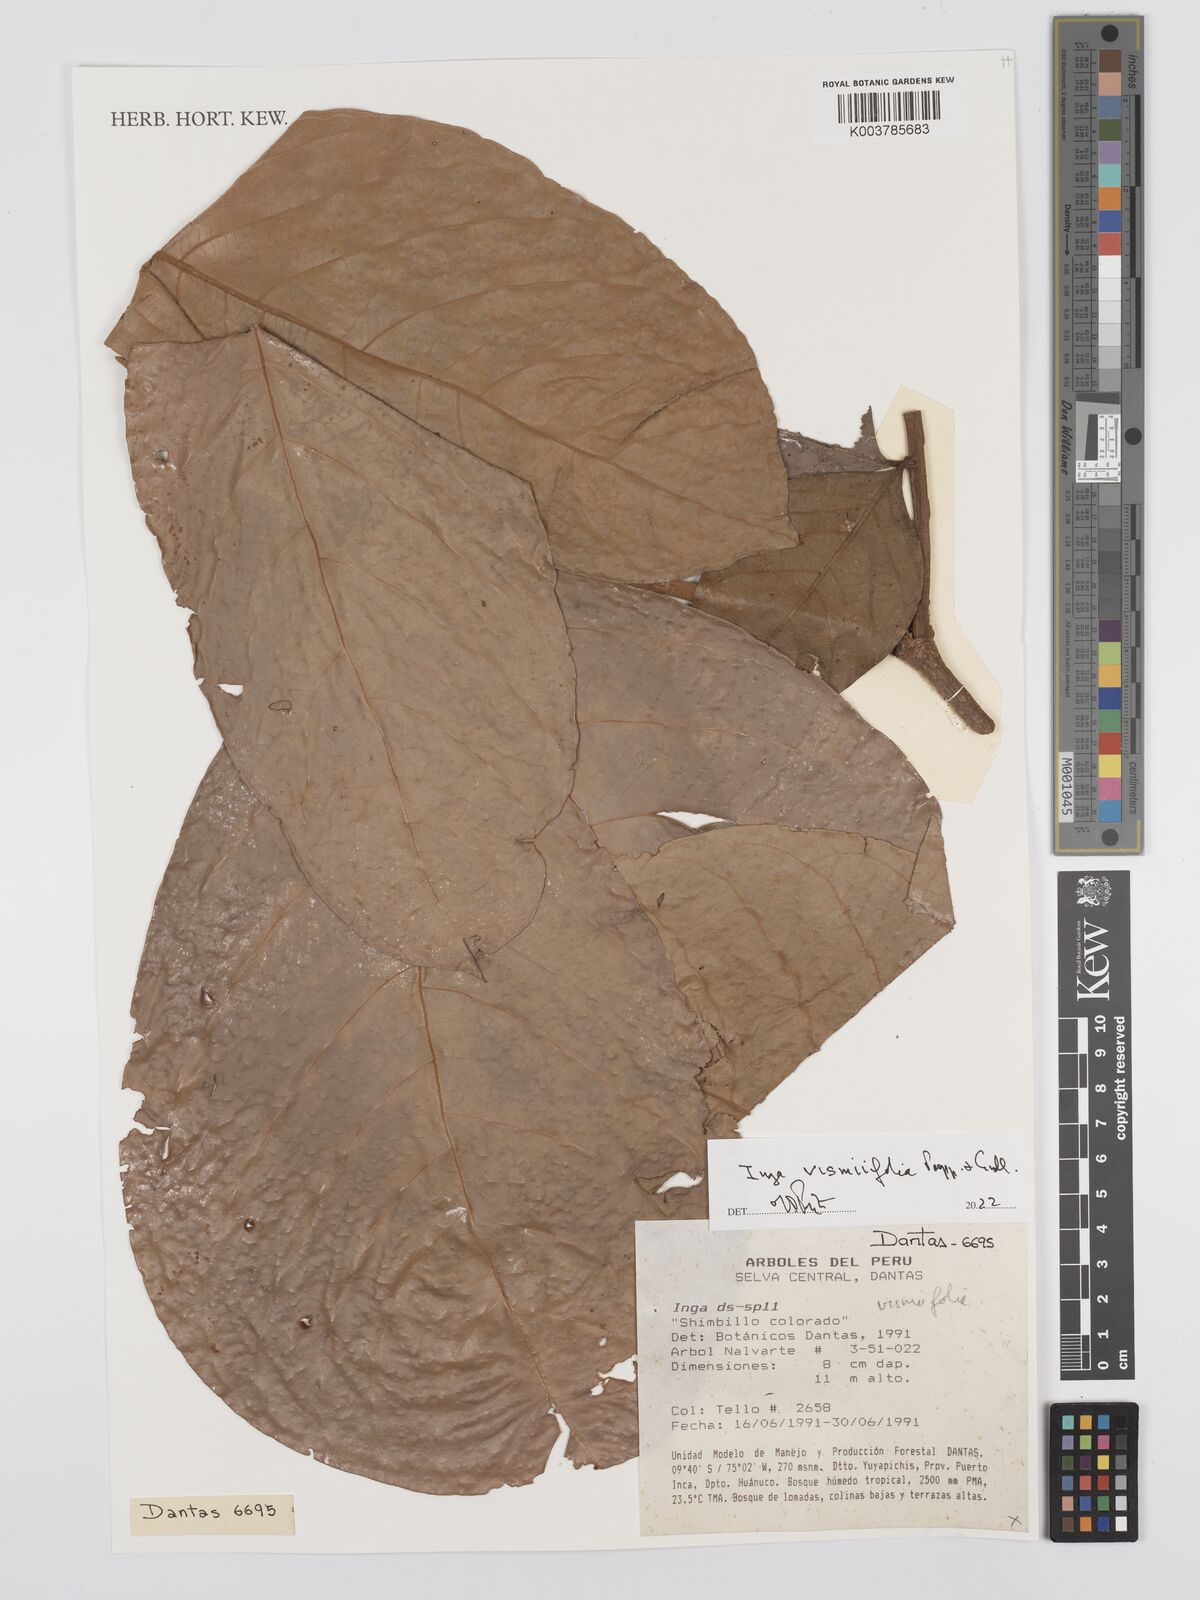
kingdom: Plantae
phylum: Tracheophyta
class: Magnoliopsida
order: Fabales
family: Fabaceae
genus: Inga
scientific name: Inga vismiifolia
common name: Howler monkey inga
